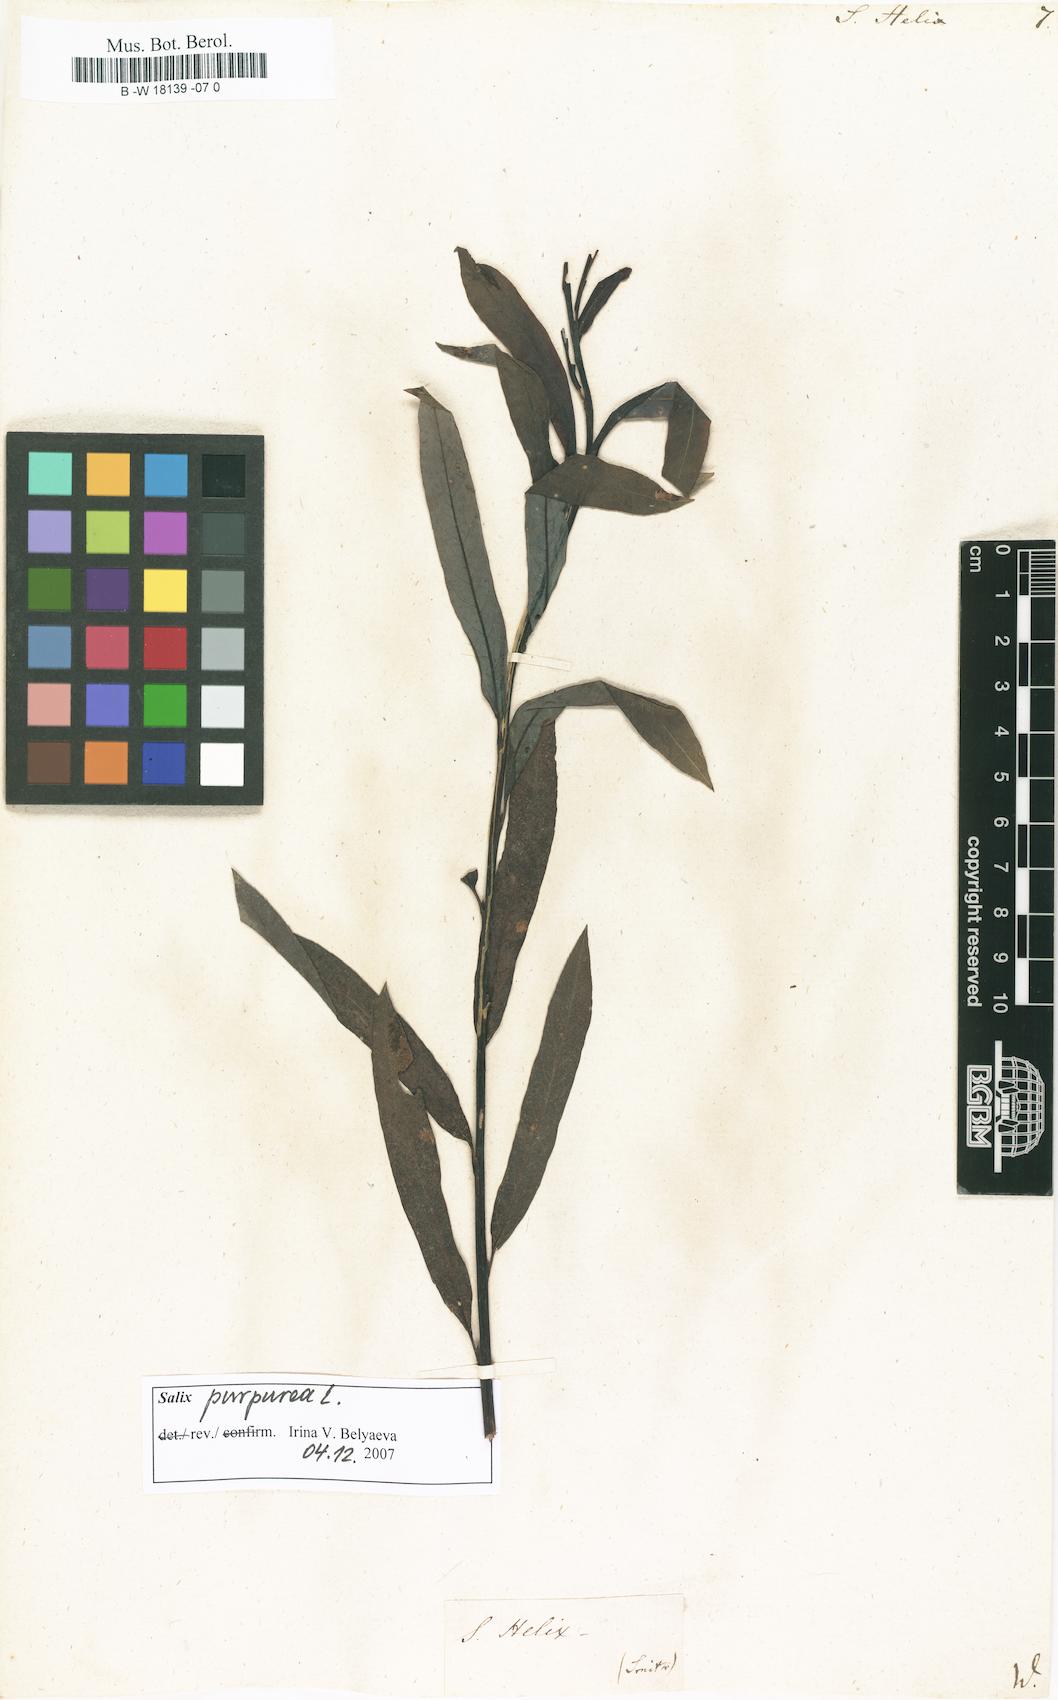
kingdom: Plantae
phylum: Tracheophyta
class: Magnoliopsida
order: Malpighiales
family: Salicaceae
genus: Salix
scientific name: Salix purpurea
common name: Purple willow
